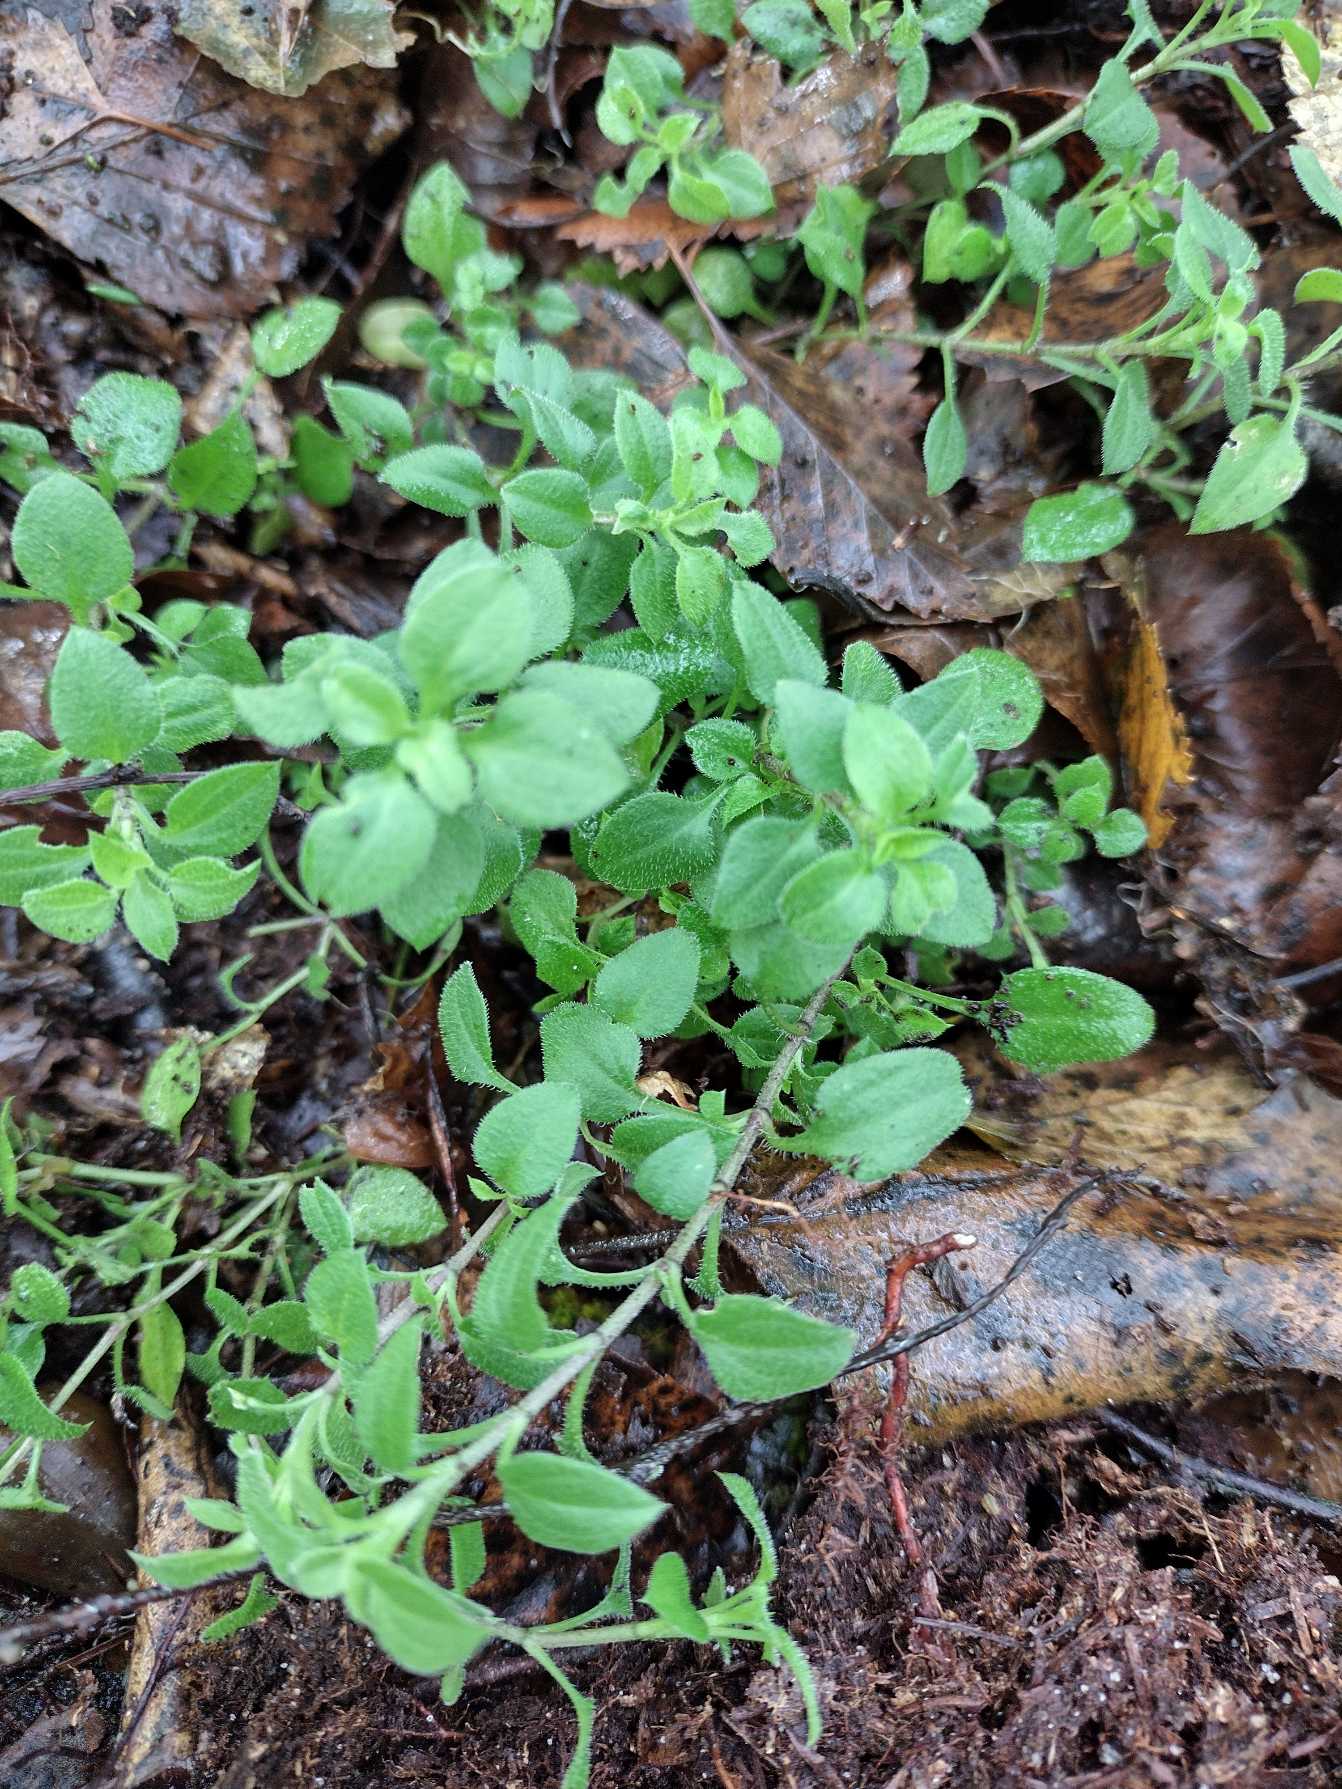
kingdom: Plantae
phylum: Tracheophyta
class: Magnoliopsida
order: Caryophyllales
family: Caryophyllaceae
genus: Moehringia
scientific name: Moehringia trinervia
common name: Skovarve
